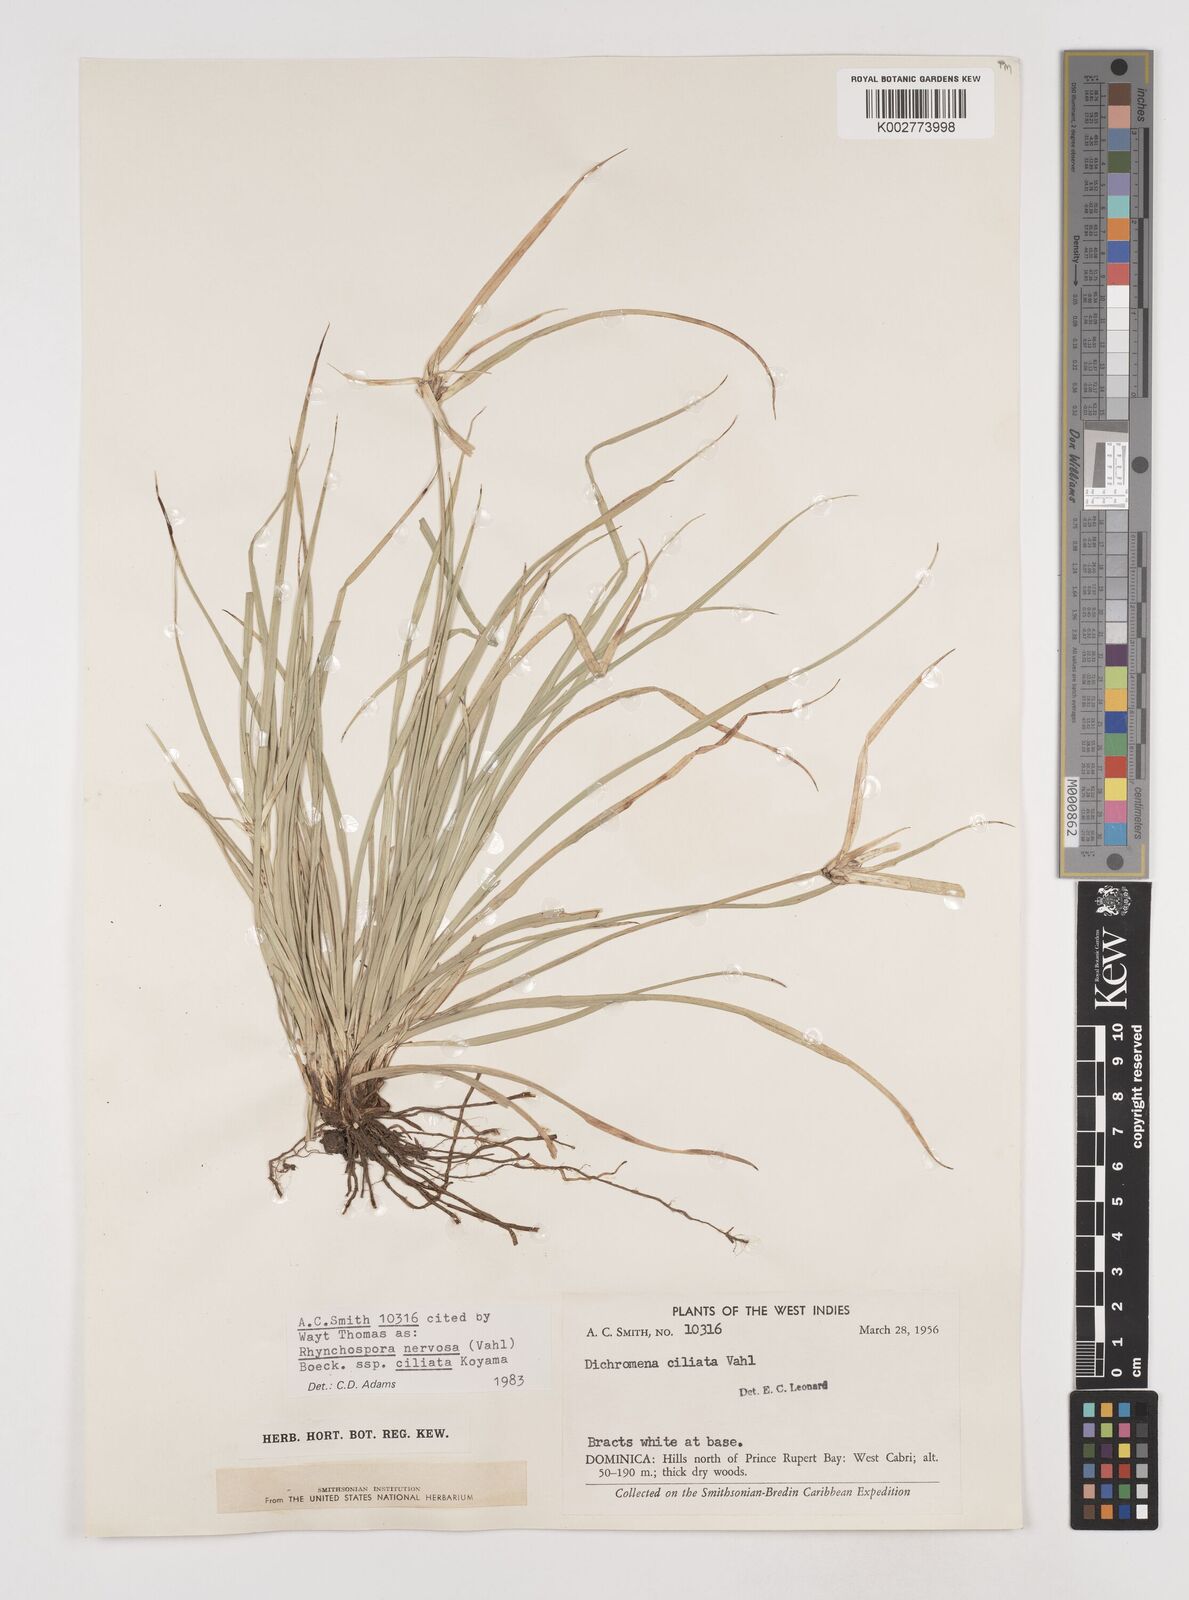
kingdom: Plantae
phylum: Tracheophyta
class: Liliopsida
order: Poales
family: Cyperaceae
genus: Rhynchospora
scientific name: Rhynchospora pura
